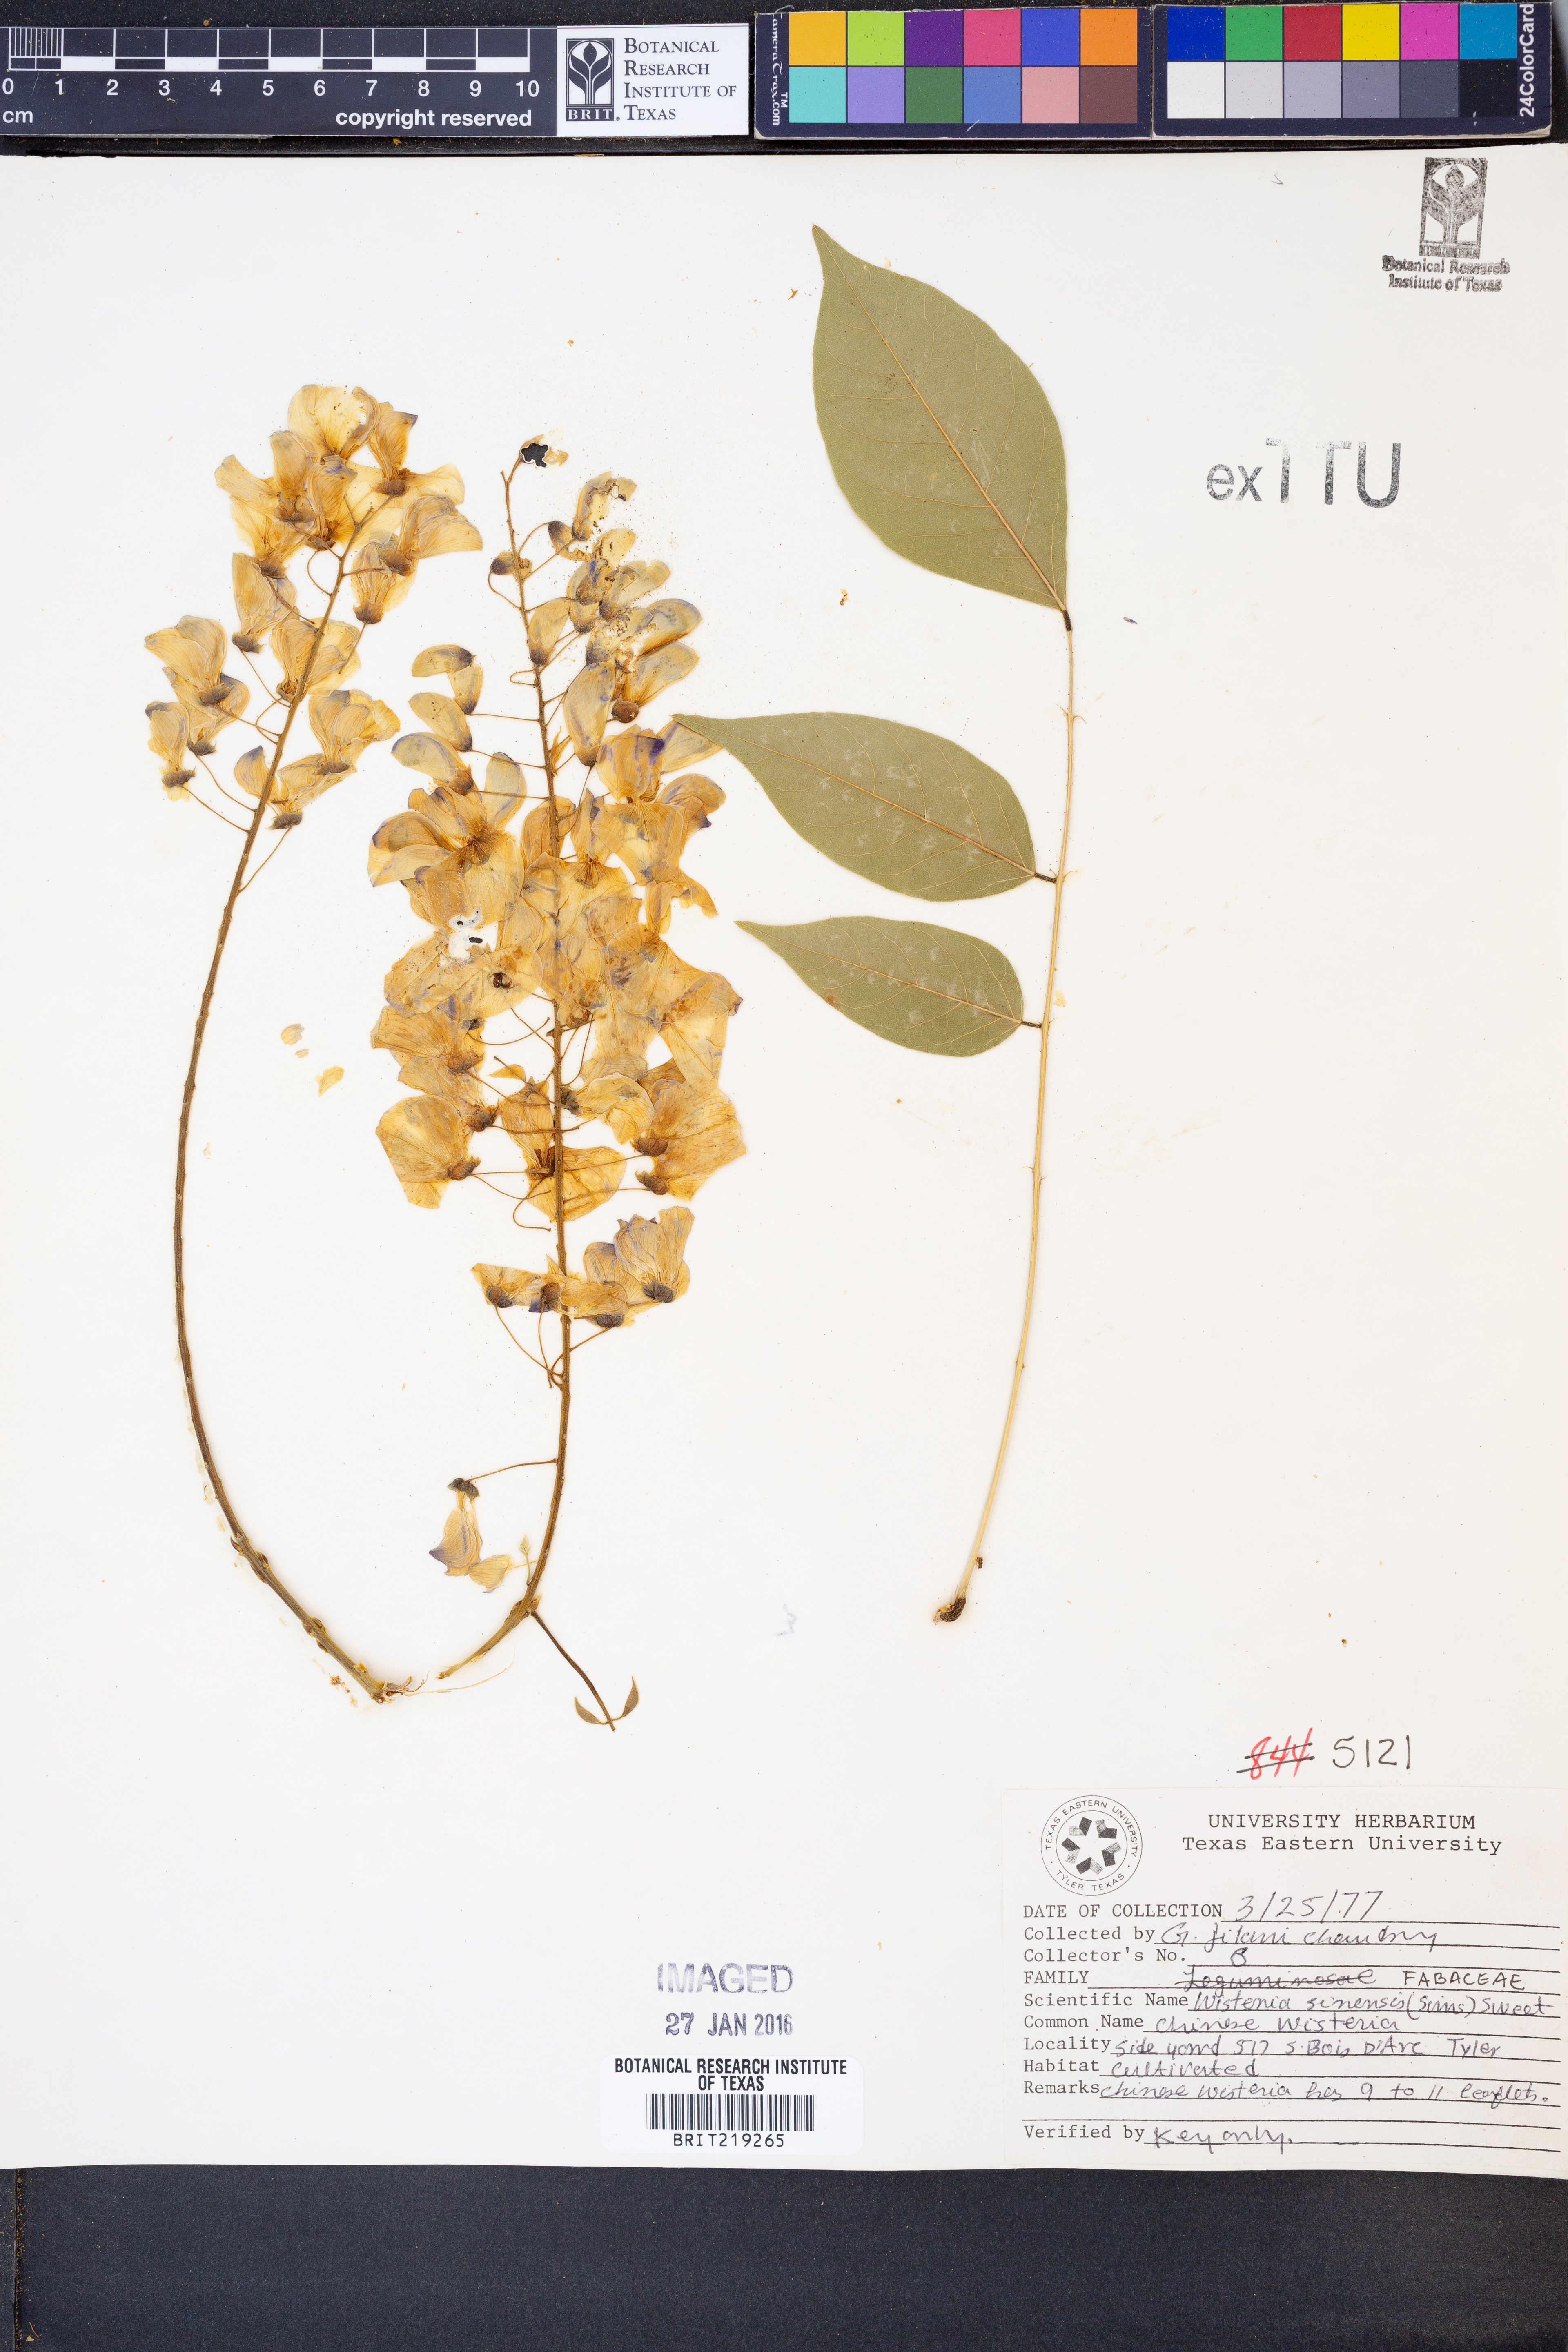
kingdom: Plantae
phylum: Tracheophyta
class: Magnoliopsida
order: Fabales
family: Fabaceae
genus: Wisteria
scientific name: Wisteria sinensis
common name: Chinese wisteria
